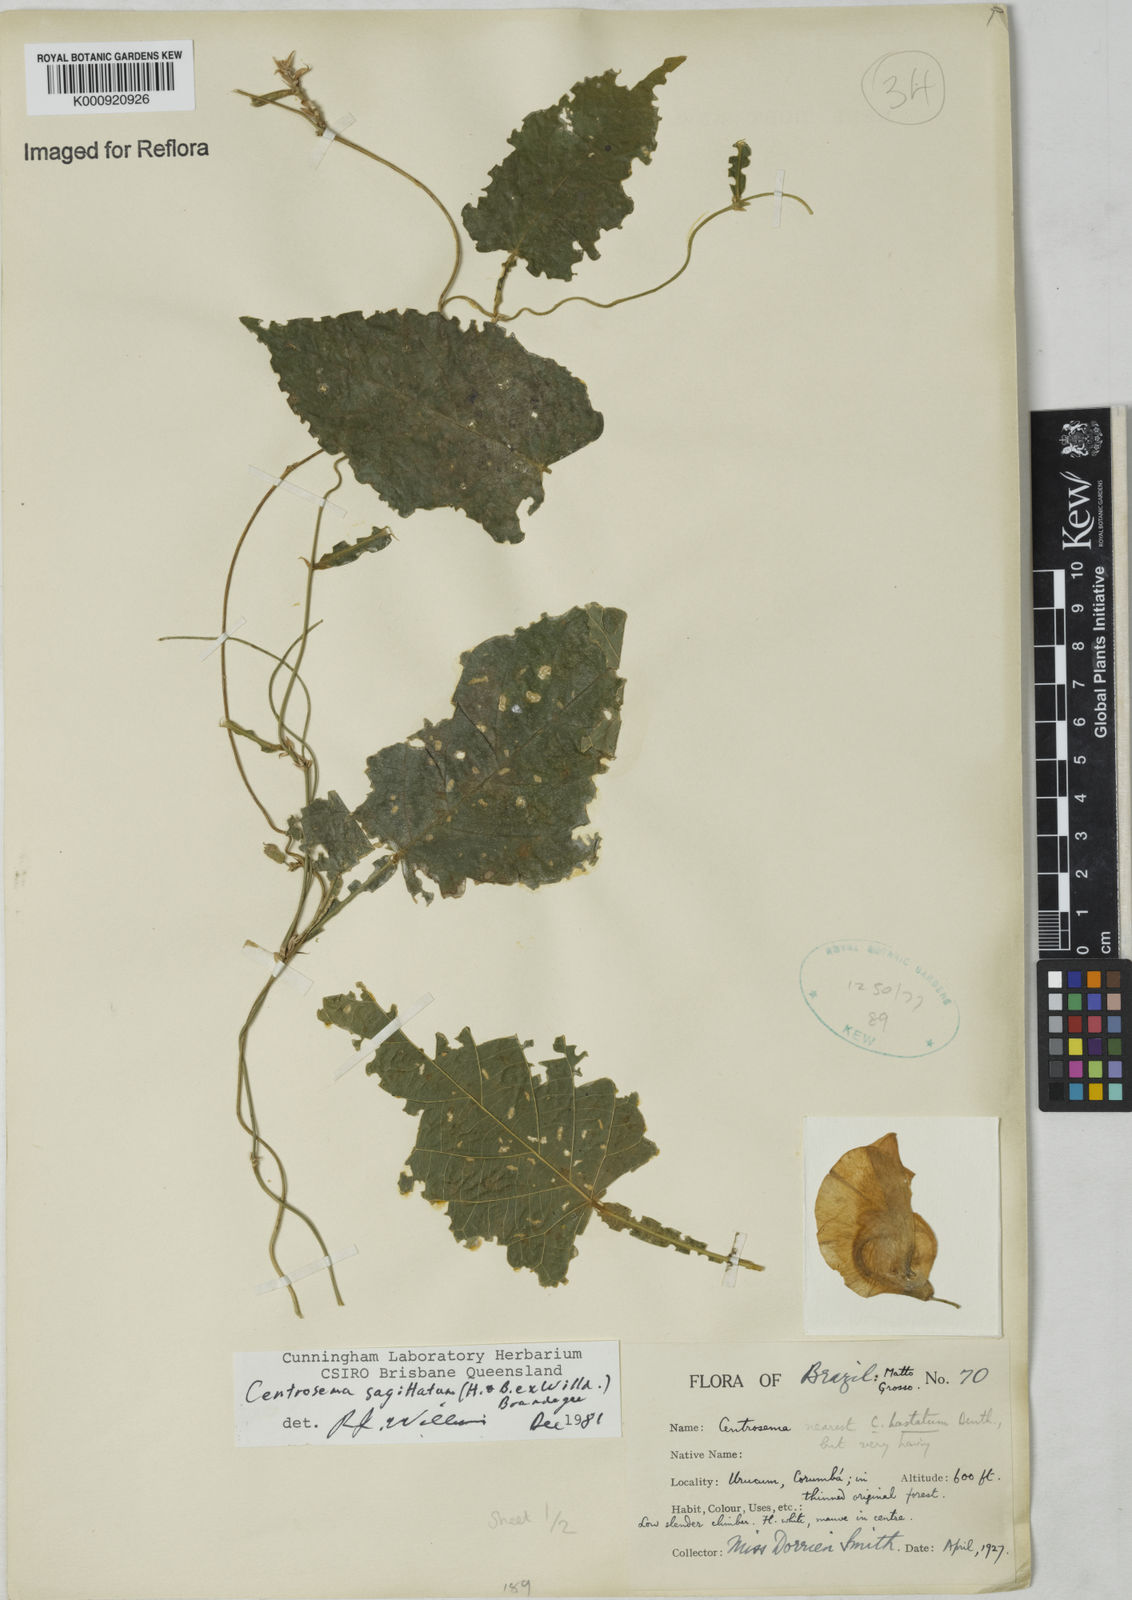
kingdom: Plantae
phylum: Tracheophyta
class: Magnoliopsida
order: Fabales
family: Fabaceae
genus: Centrosema
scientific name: Centrosema sagittatum
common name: Arrowleaf butterfly pea
